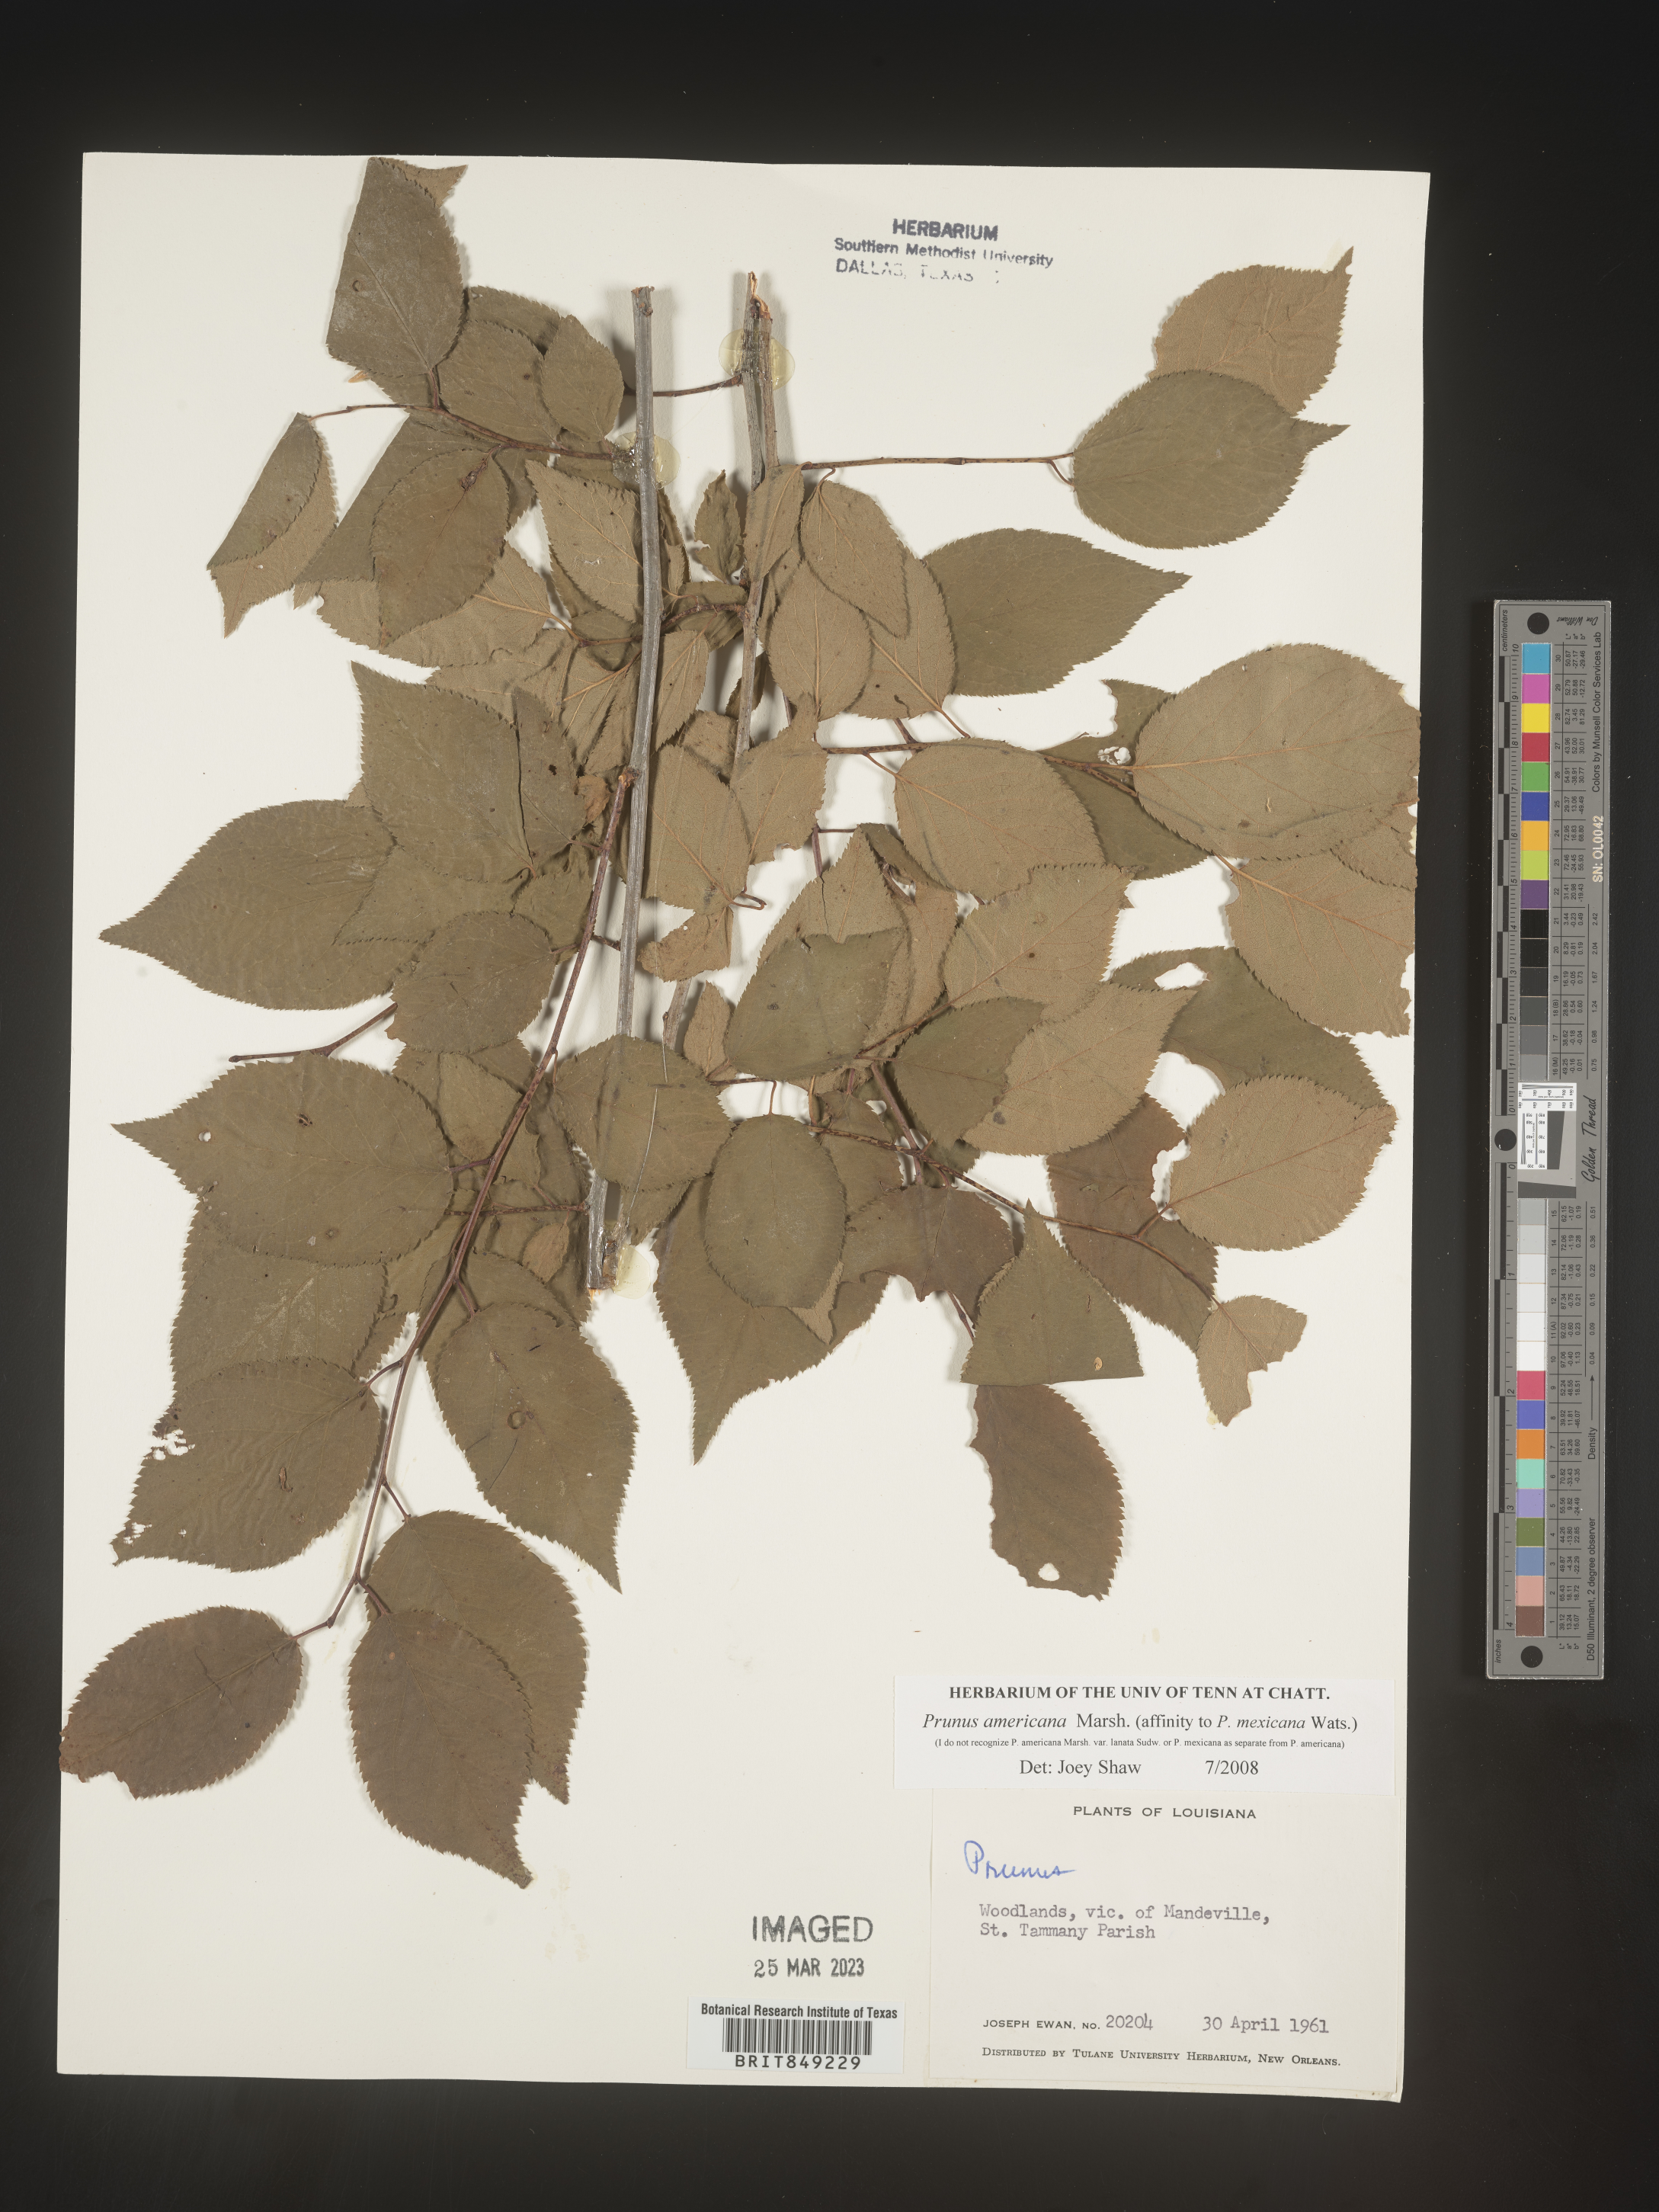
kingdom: Plantae
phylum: Tracheophyta
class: Magnoliopsida
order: Rosales
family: Rosaceae
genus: Prunus
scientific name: Prunus americana
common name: American plum
